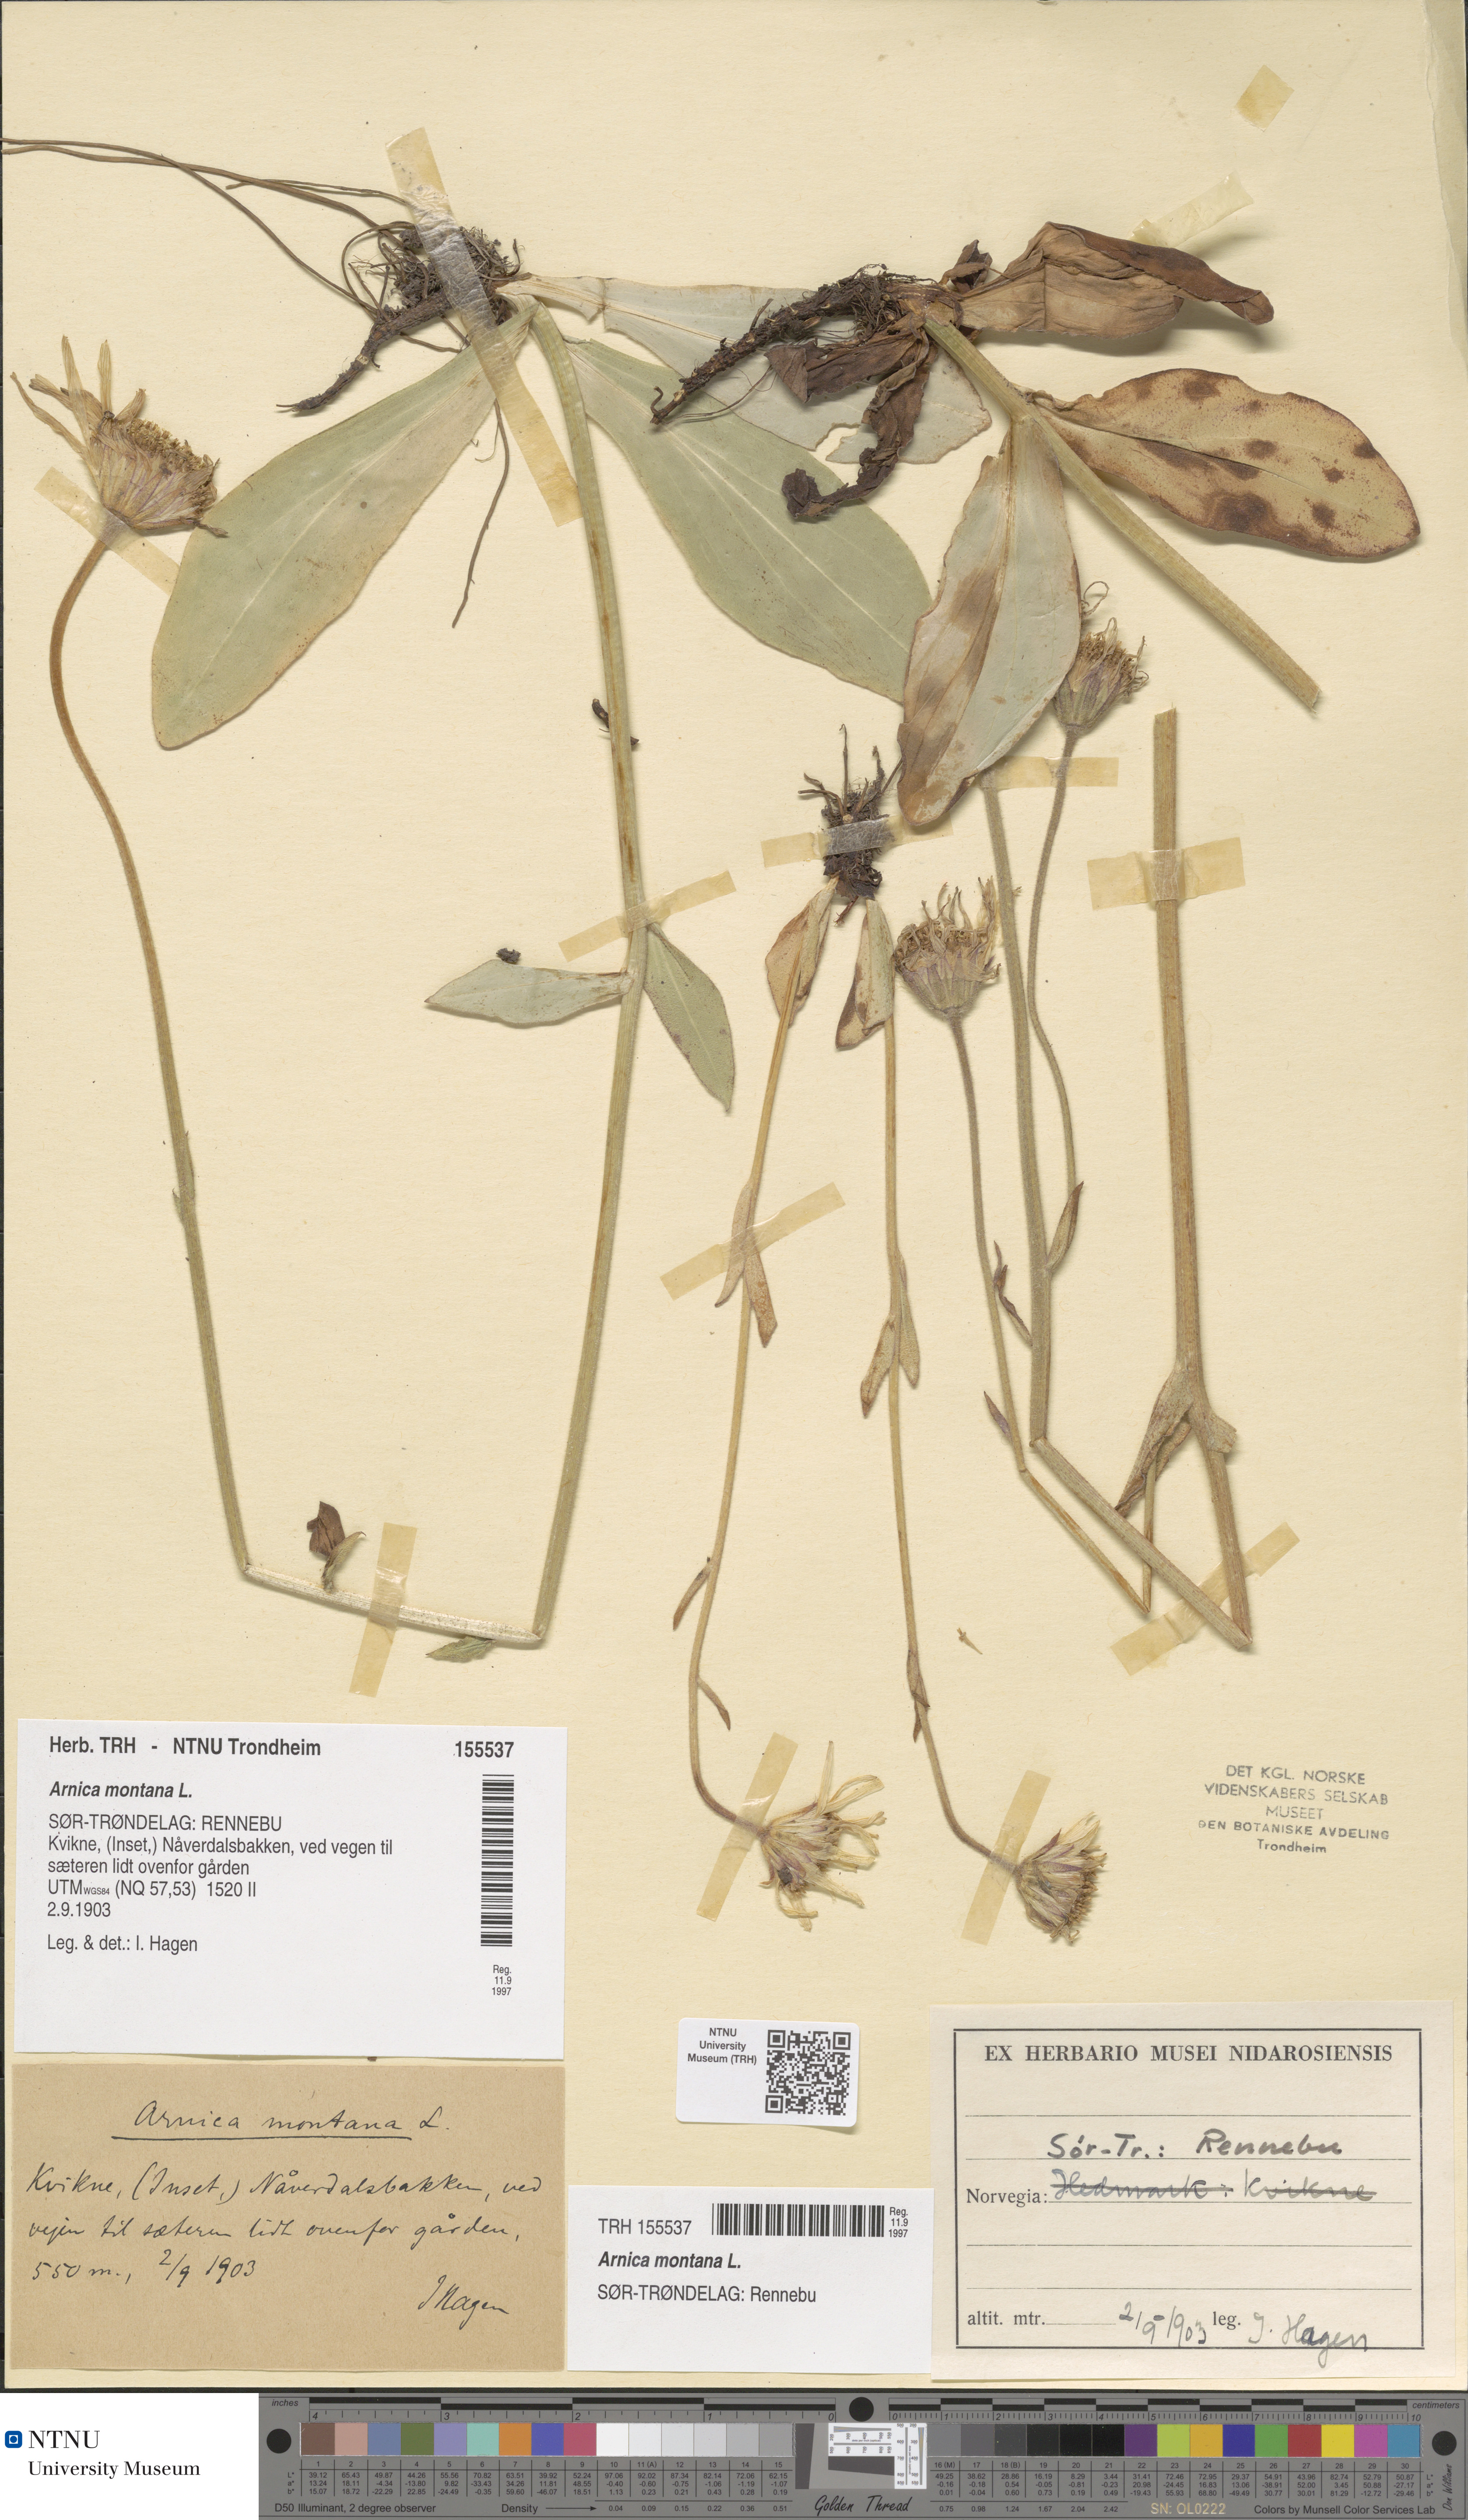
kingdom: Plantae
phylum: Tracheophyta
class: Magnoliopsida
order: Asterales
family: Asteraceae
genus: Arnica
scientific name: Arnica montana
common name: Leopard's bane
